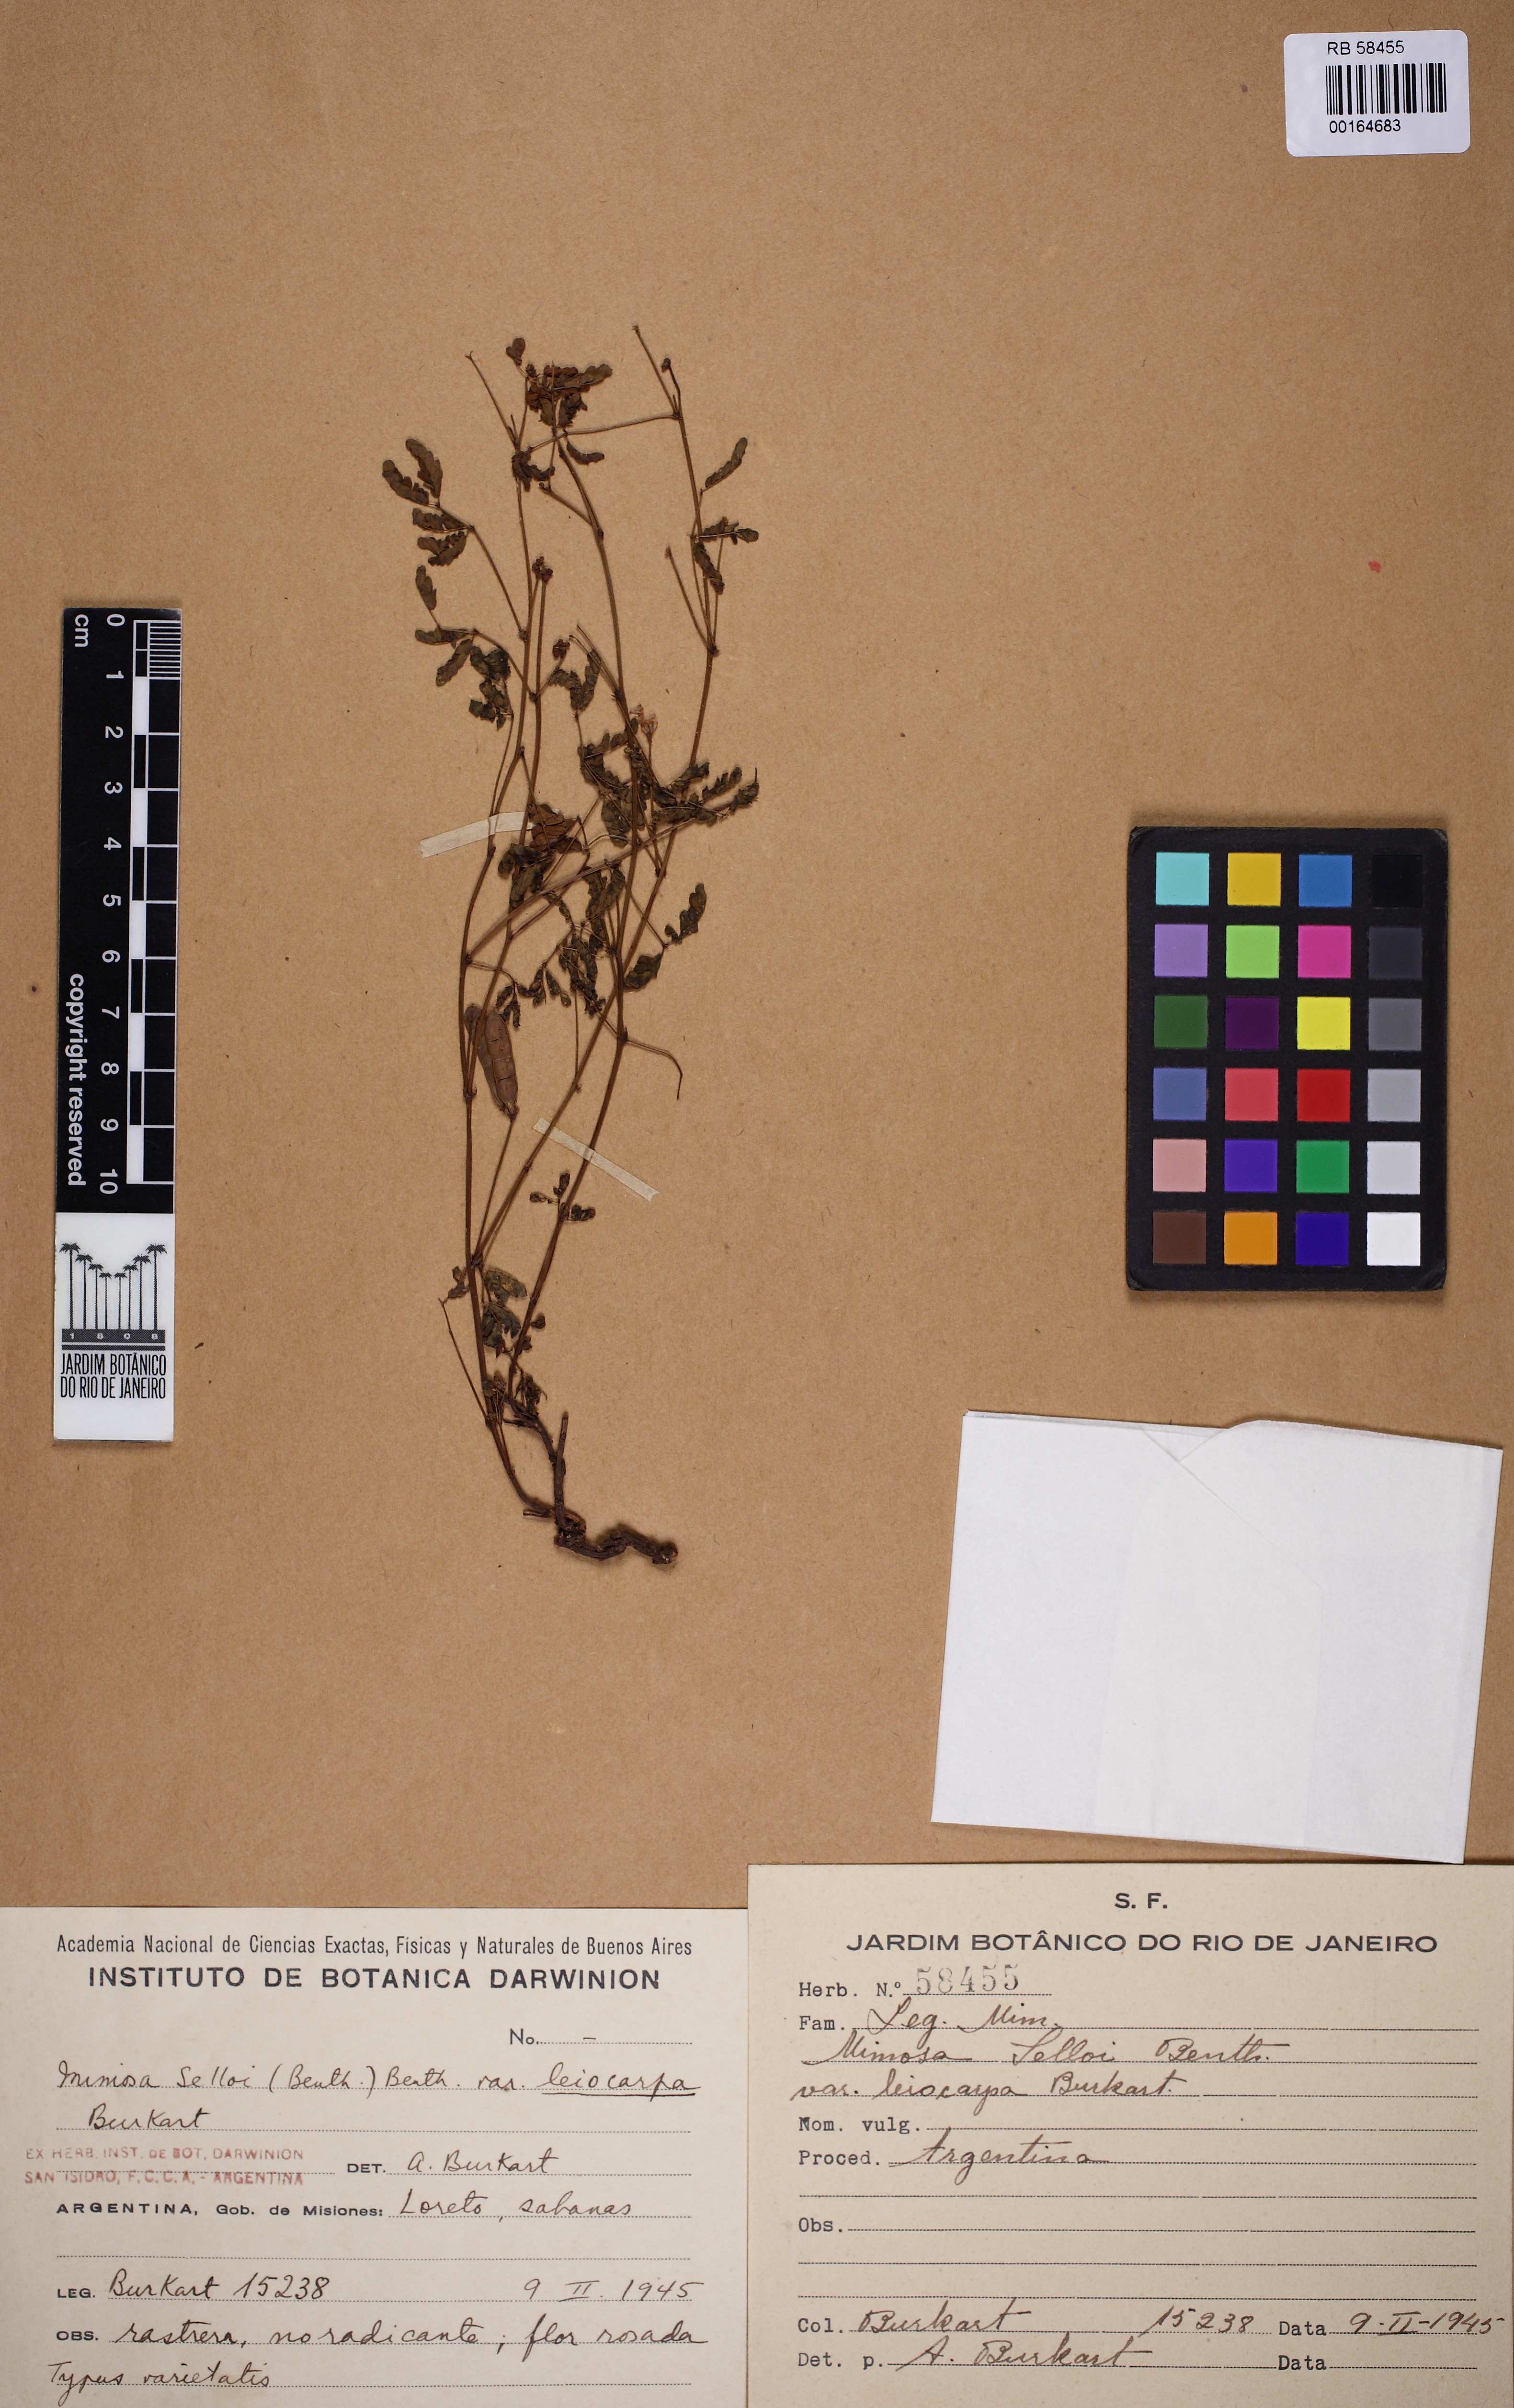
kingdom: Plantae
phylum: Tracheophyta
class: Magnoliopsida
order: Fabales
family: Fabaceae
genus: Mimosa
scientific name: Mimosa gracilis
